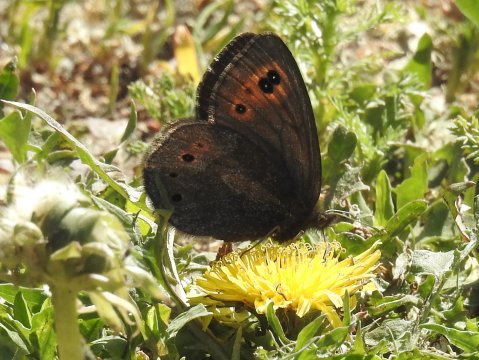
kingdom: Animalia
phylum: Arthropoda
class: Insecta
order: Lepidoptera
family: Nymphalidae
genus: Erebia
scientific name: Erebia epipsodea
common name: Common Alpine
